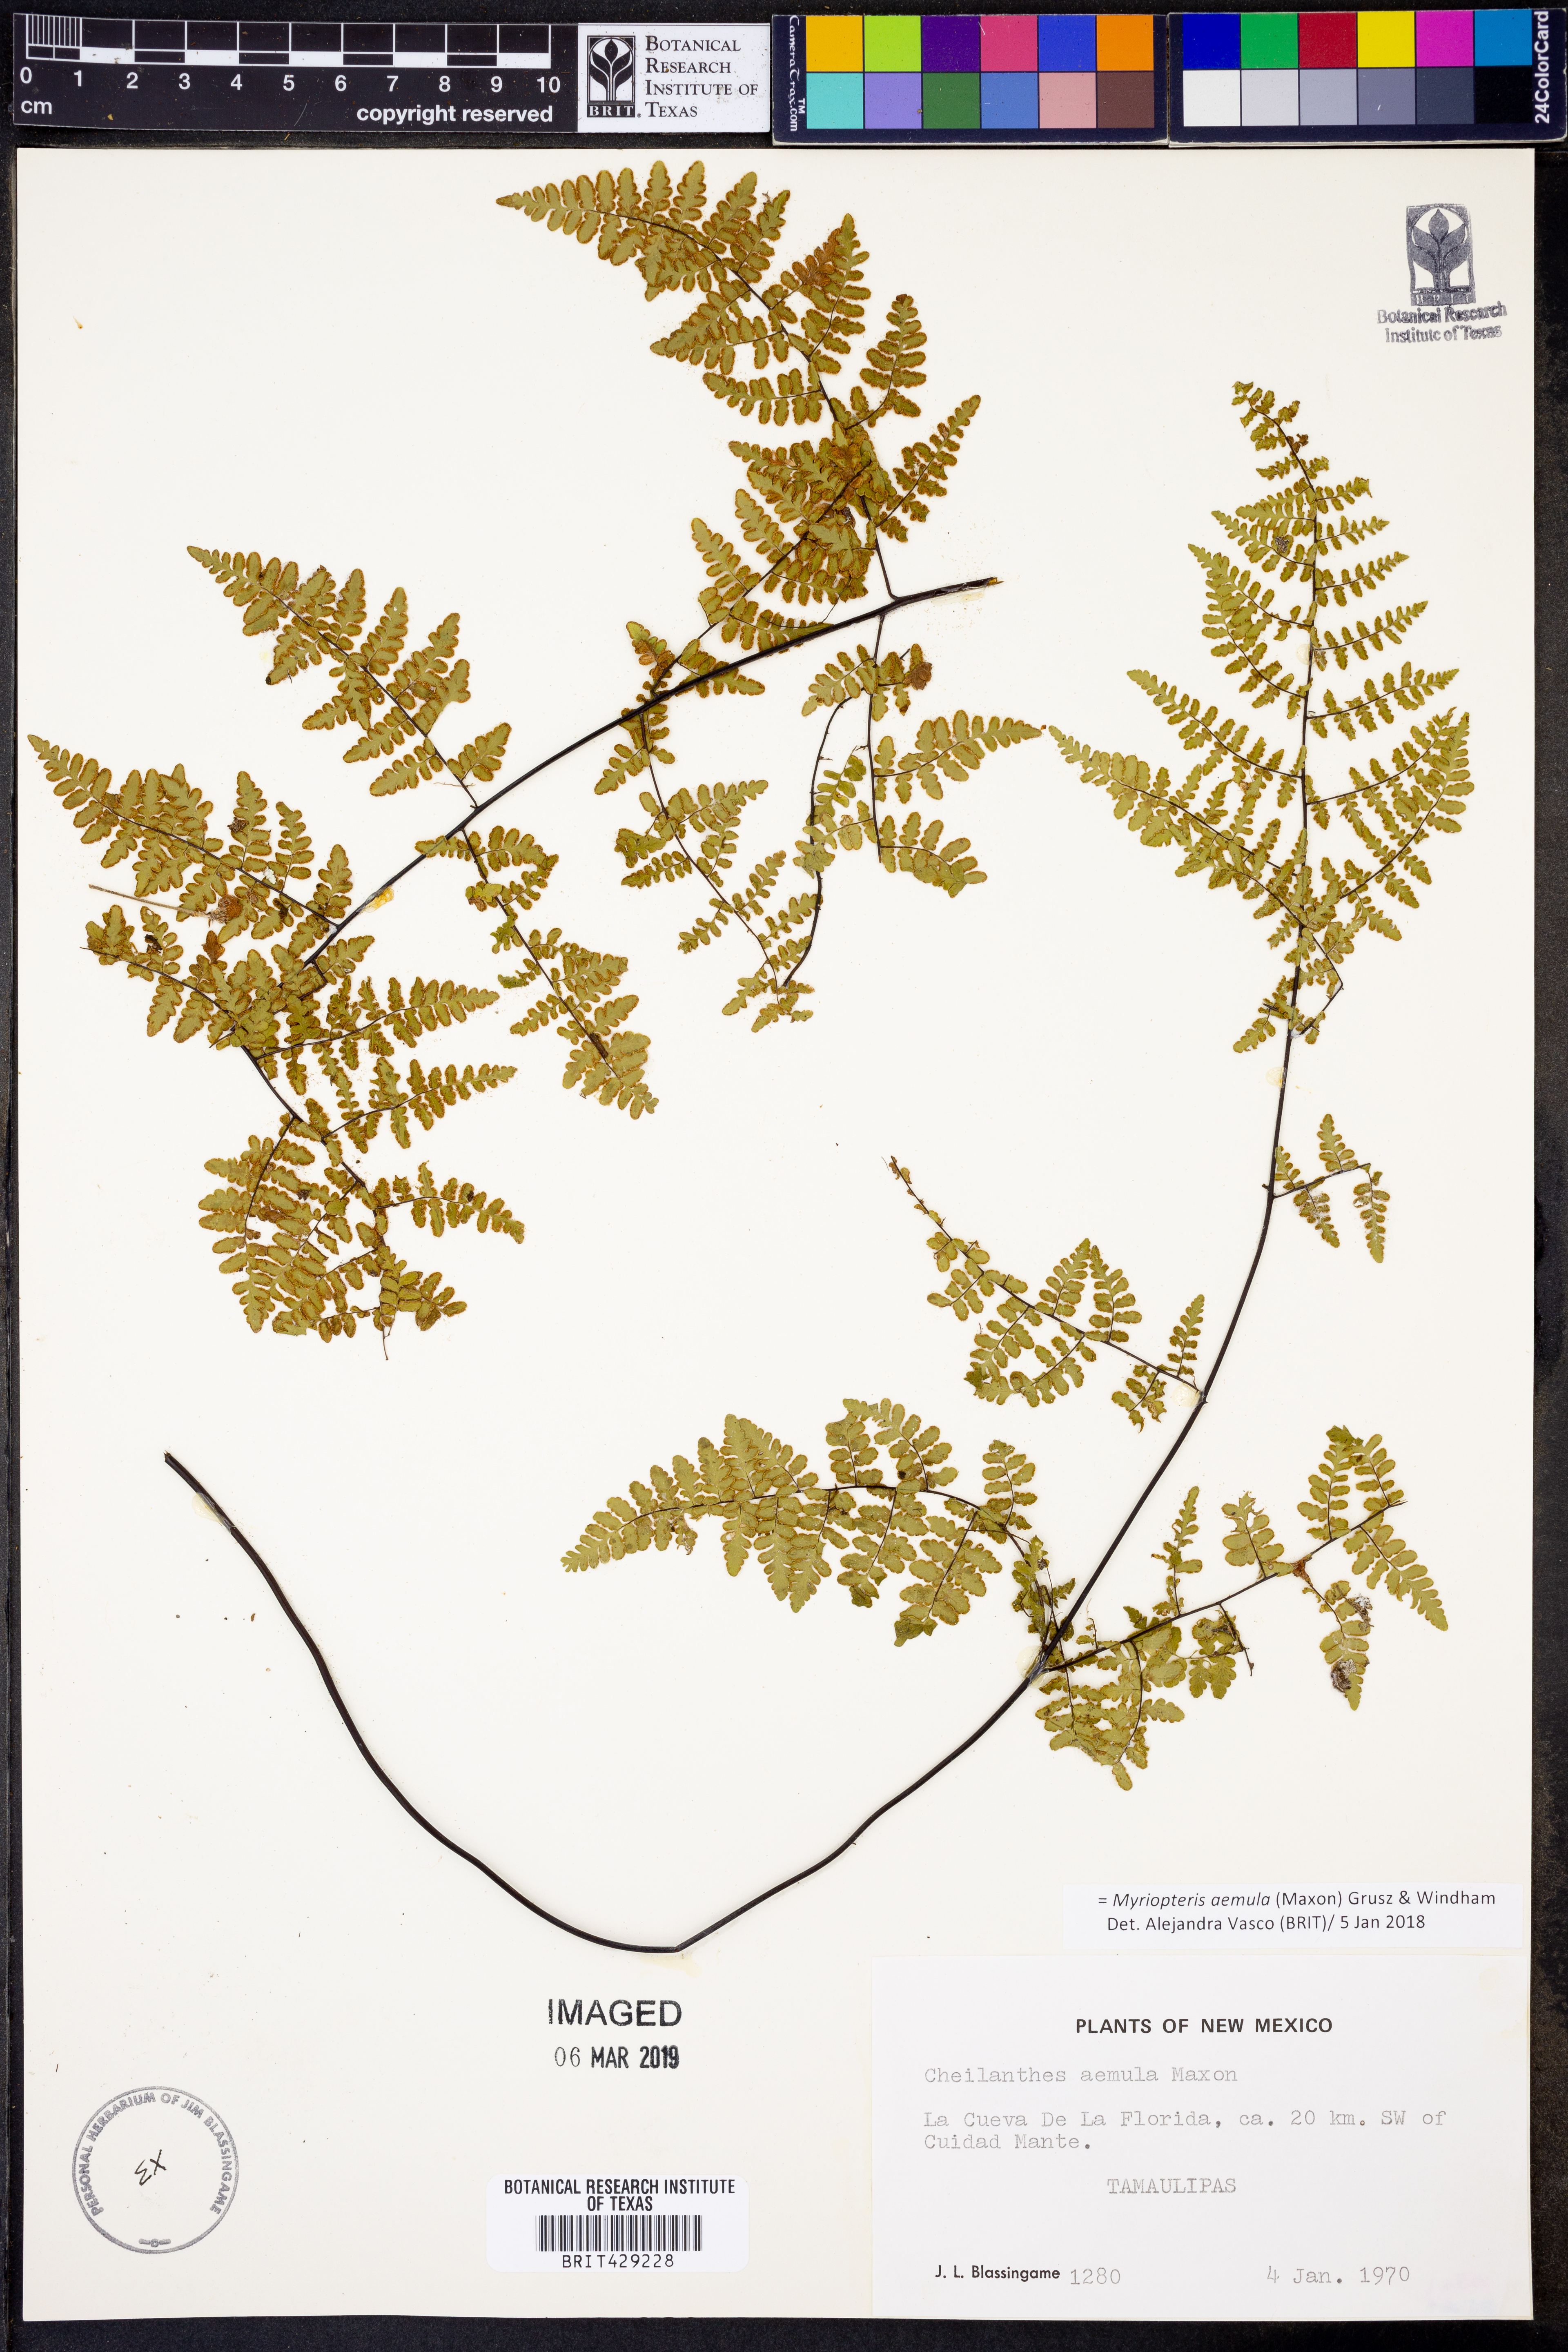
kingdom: Plantae
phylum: Tracheophyta
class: Polypodiopsida
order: Polypodiales
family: Pteridaceae
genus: Myriopteris
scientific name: Myriopteris aemula
